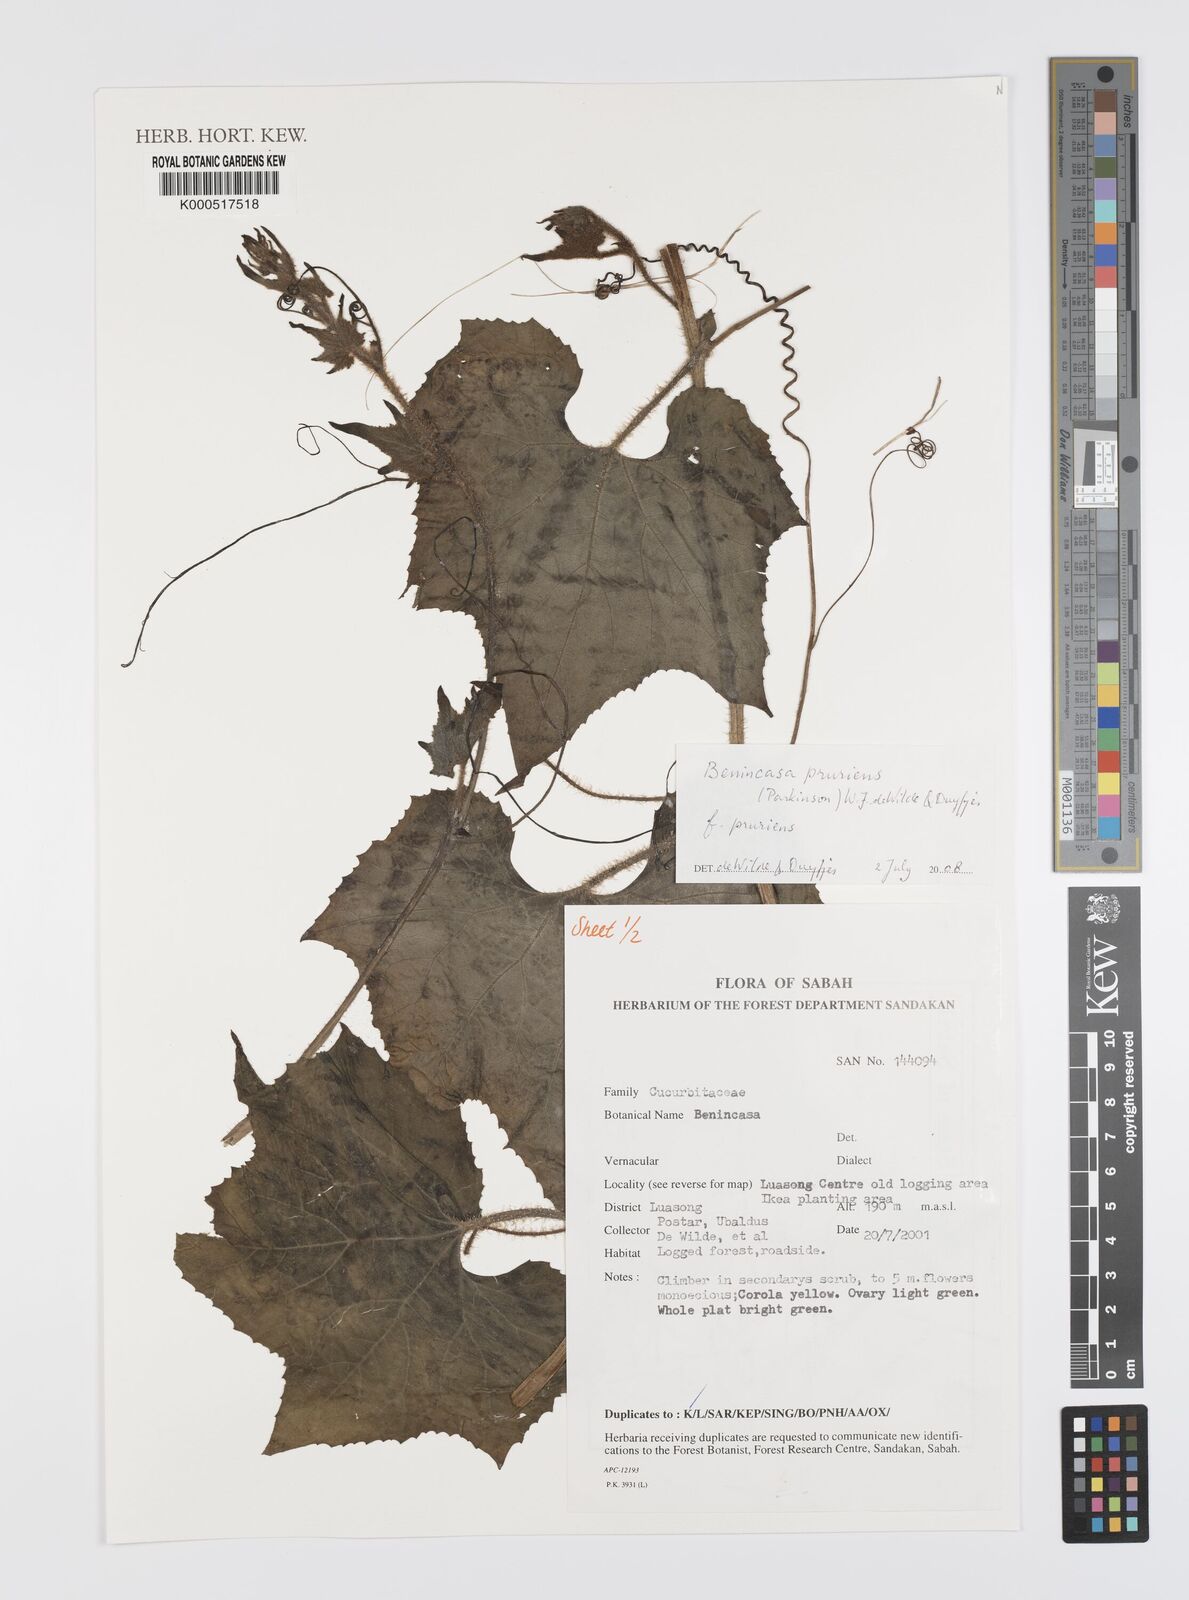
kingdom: Plantae
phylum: Tracheophyta
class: Magnoliopsida
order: Cucurbitales
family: Cucurbitaceae
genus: Benincasa
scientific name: Benincasa pruriens
